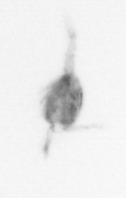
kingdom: Animalia
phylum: Arthropoda
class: Copepoda
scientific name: Copepoda
